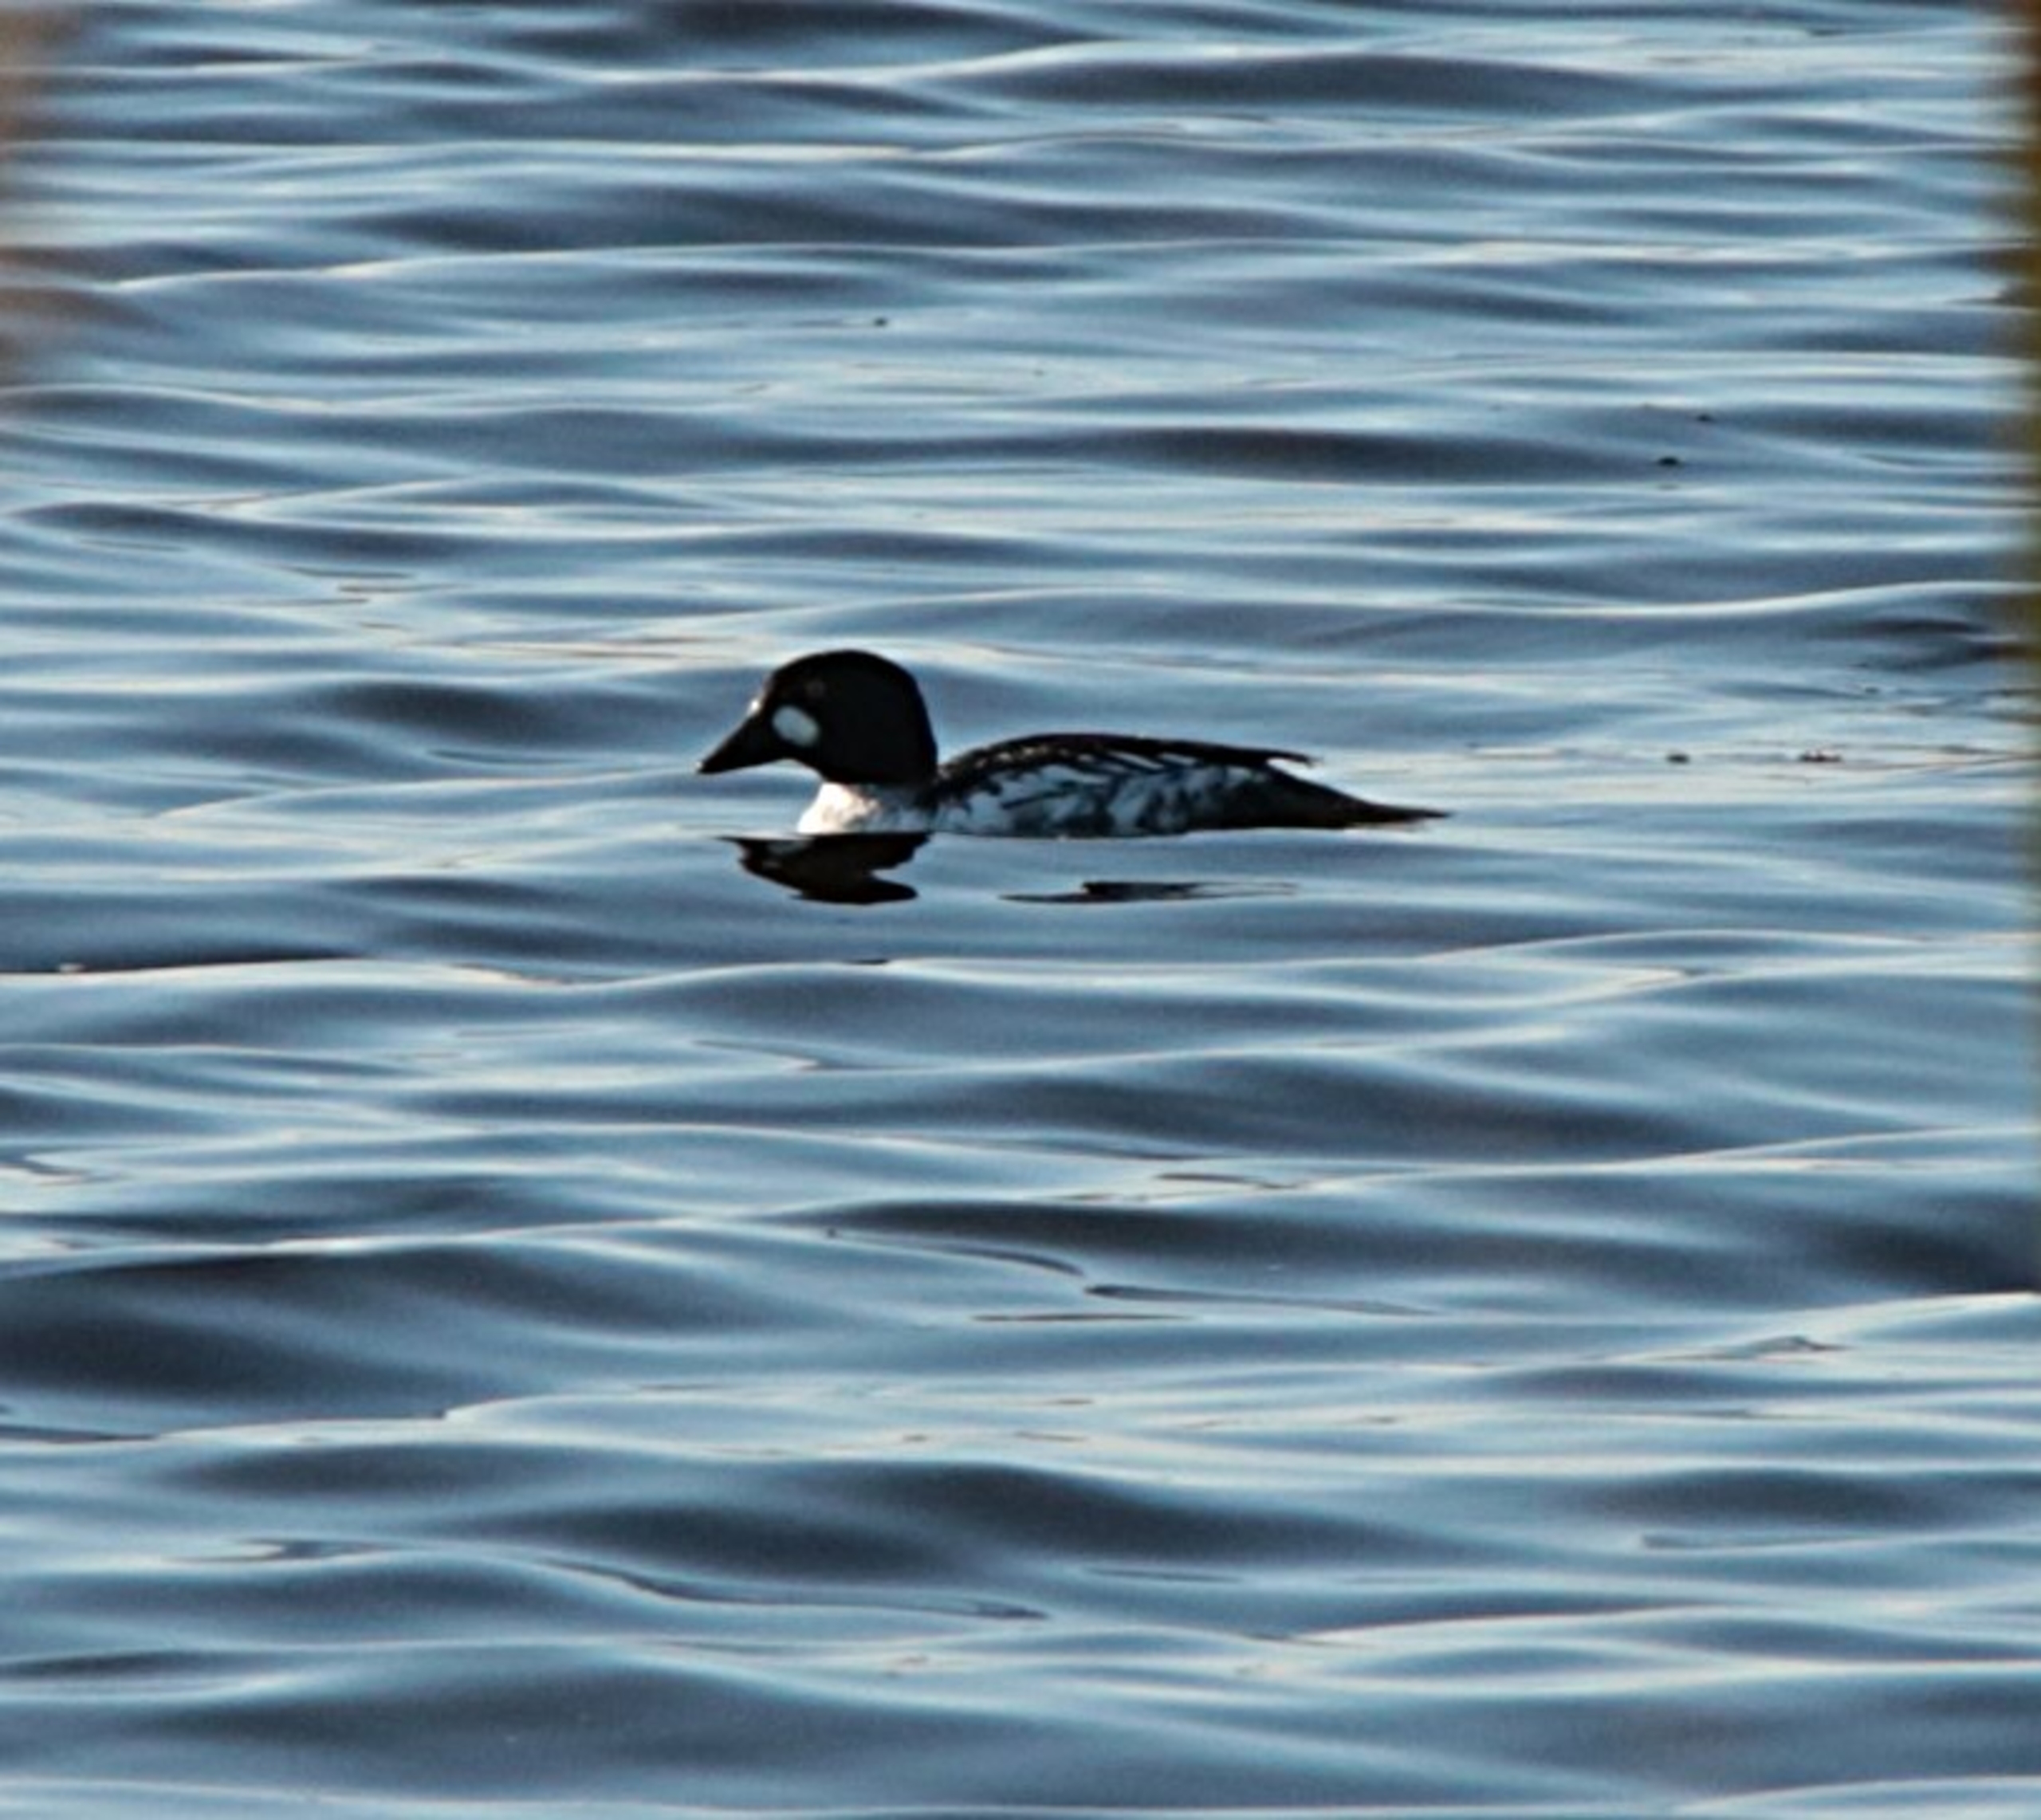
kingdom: Animalia
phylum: Chordata
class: Aves
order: Anseriformes
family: Anatidae
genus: Bucephala
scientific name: Bucephala clangula
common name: Hvinand
